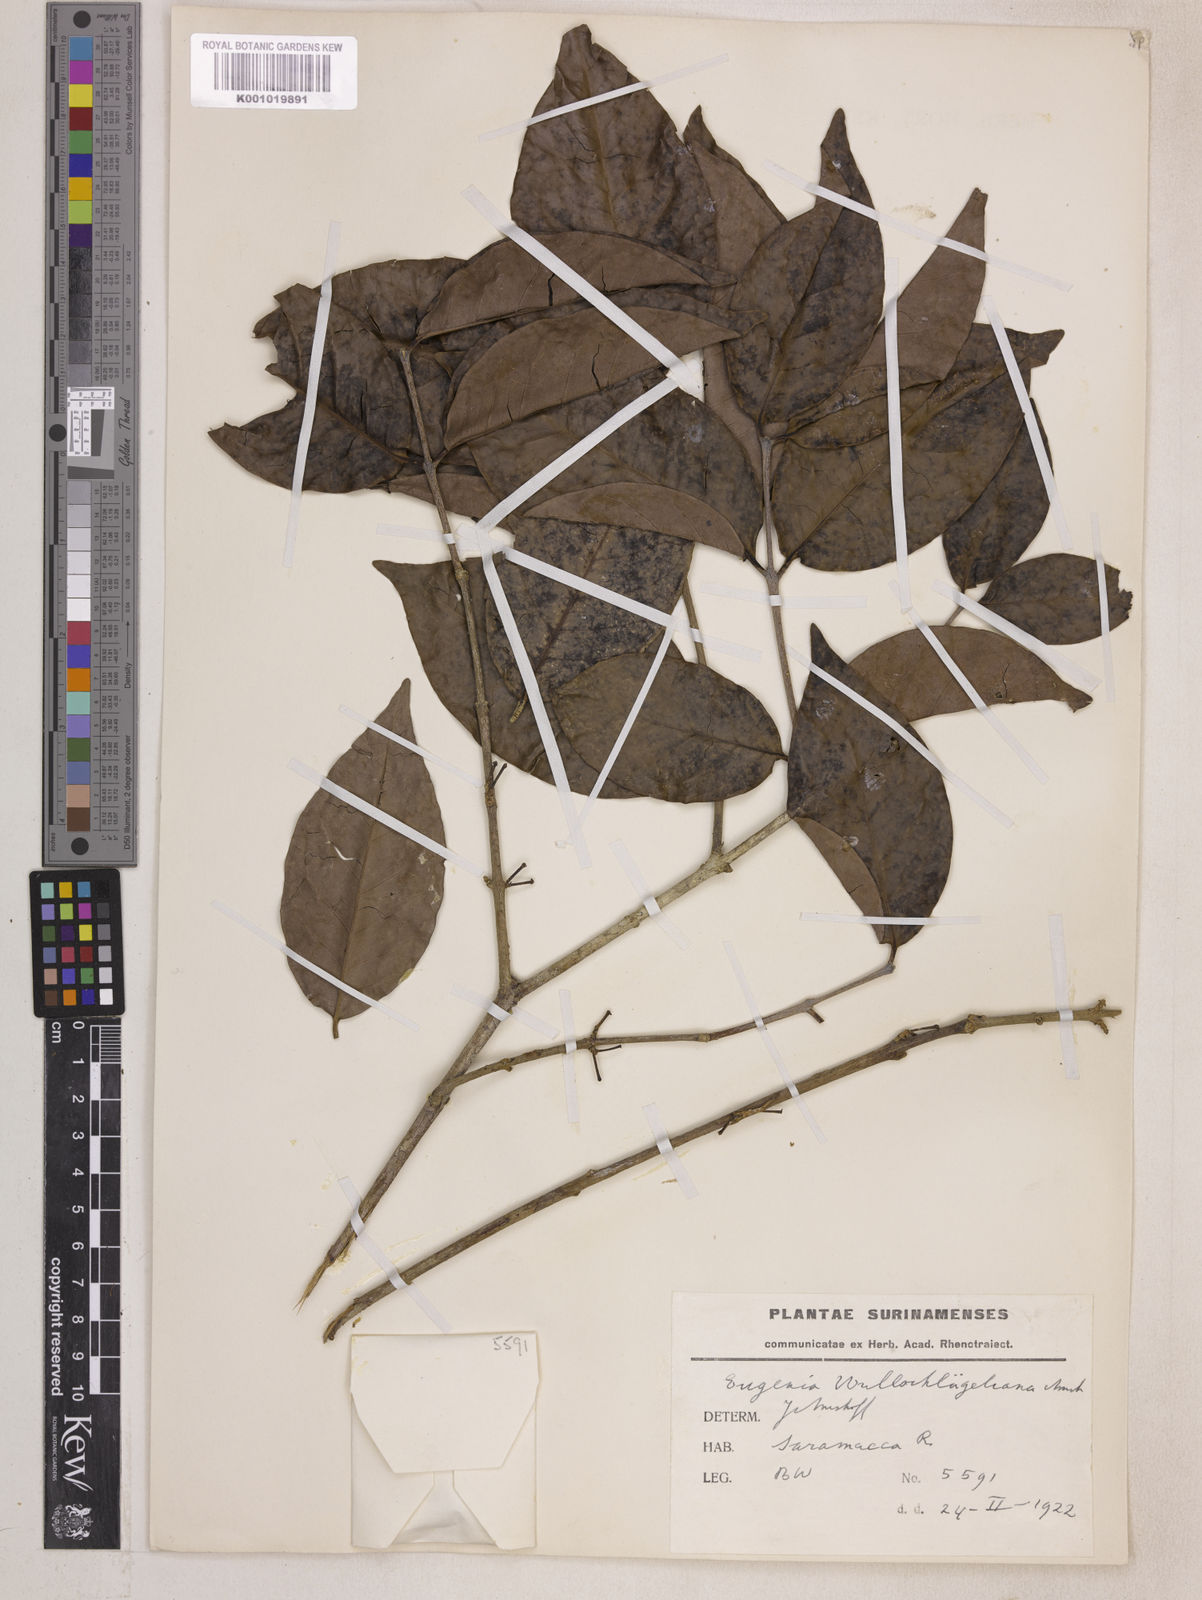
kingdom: Plantae
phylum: Tracheophyta
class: Magnoliopsida
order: Myrtales
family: Myrtaceae
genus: Eugenia
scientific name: Eugenia wullschlaegeliana
